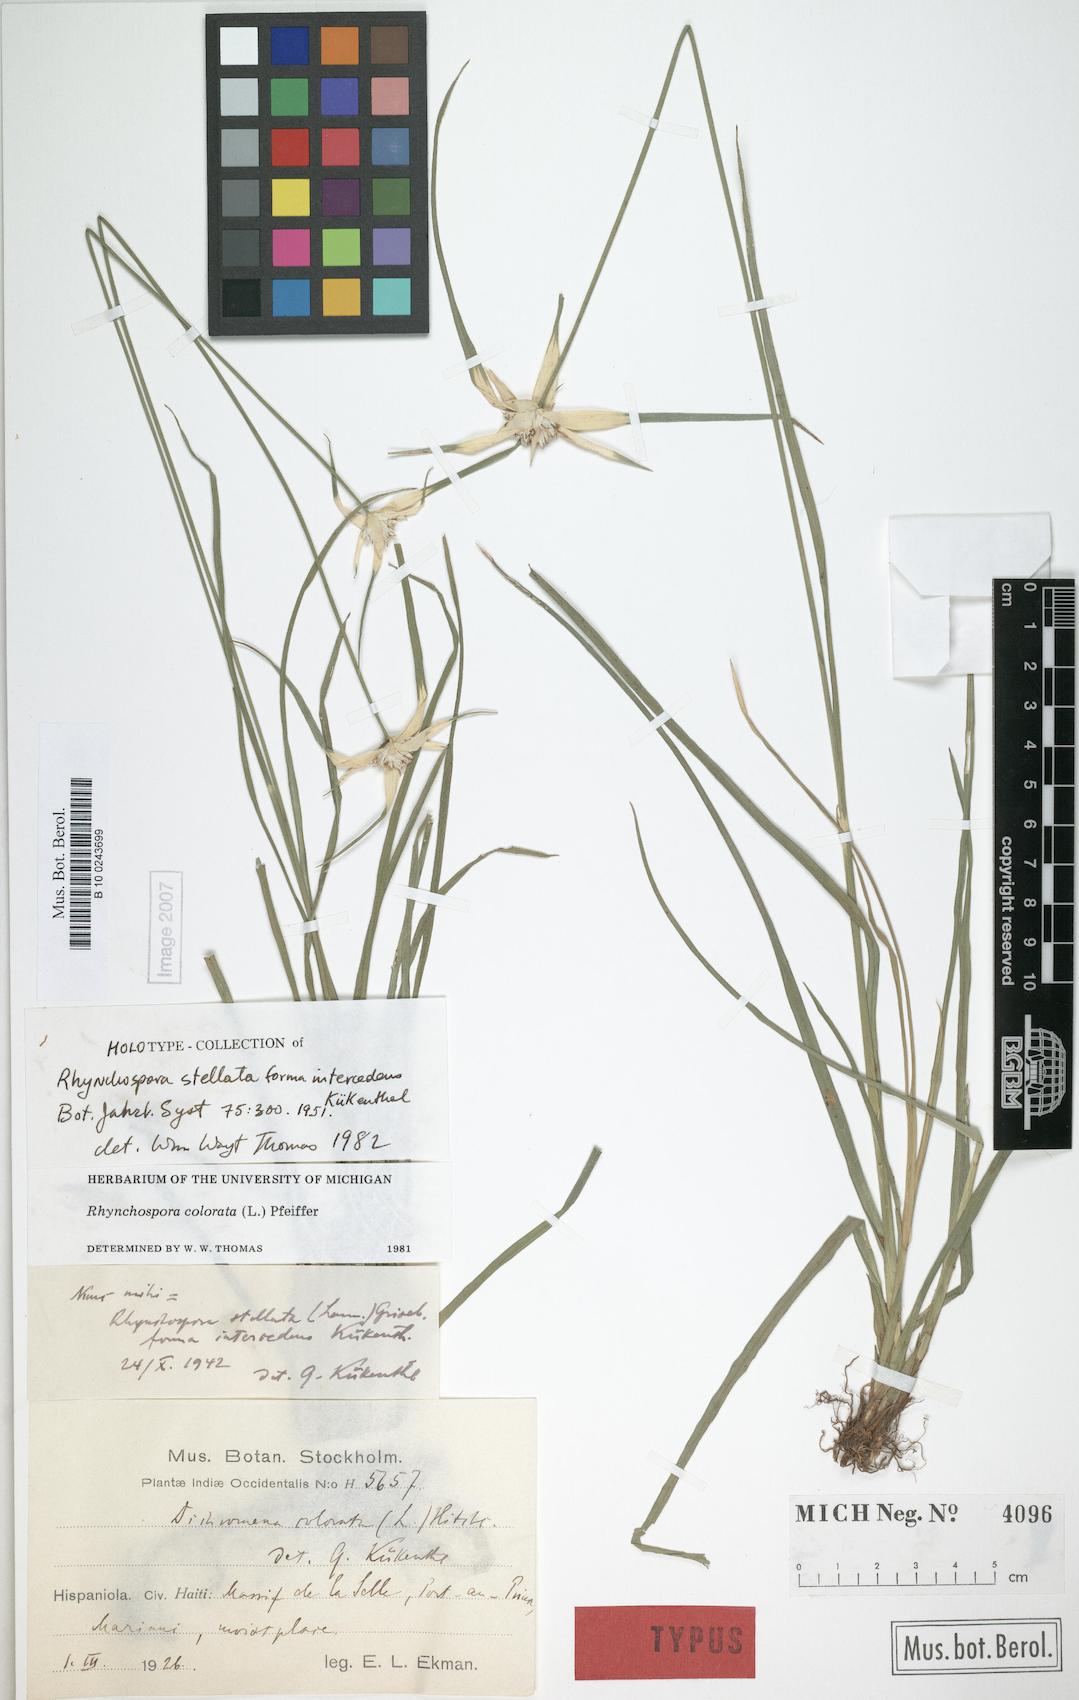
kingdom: Plantae
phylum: Tracheophyta
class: Liliopsida
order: Poales
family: Cyperaceae
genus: Rhynchospora
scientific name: Rhynchospora colorata
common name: Star sedge
